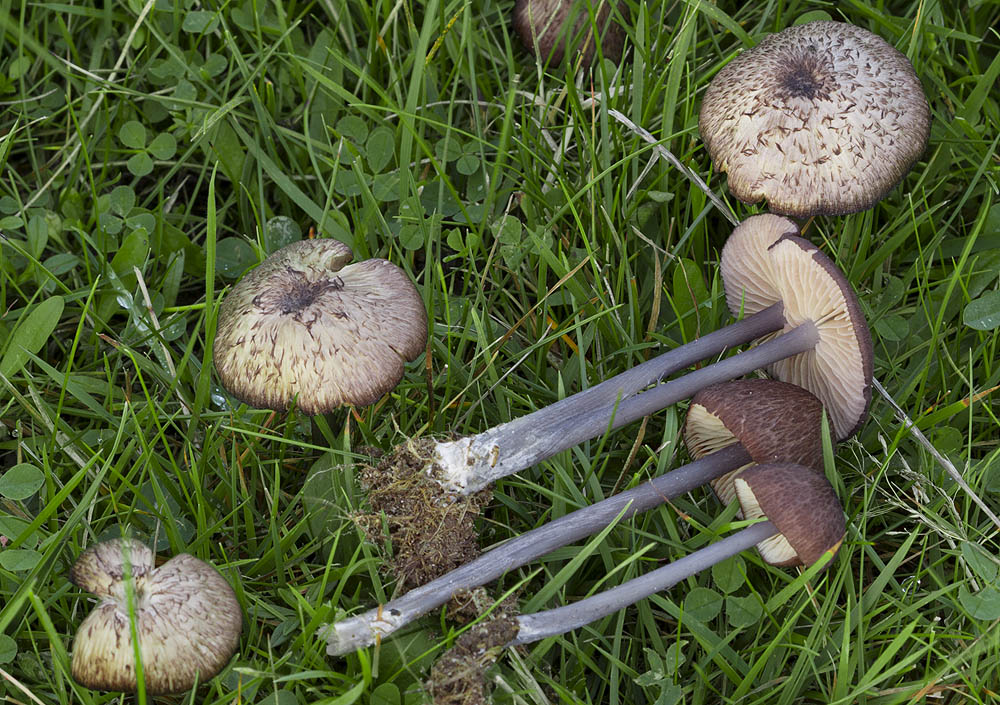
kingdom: Fungi
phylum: Basidiomycota
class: Agaricomycetes
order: Agaricales
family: Entolomataceae
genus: Entoloma
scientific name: Entoloma viiduense
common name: purpurbrun rødblad
